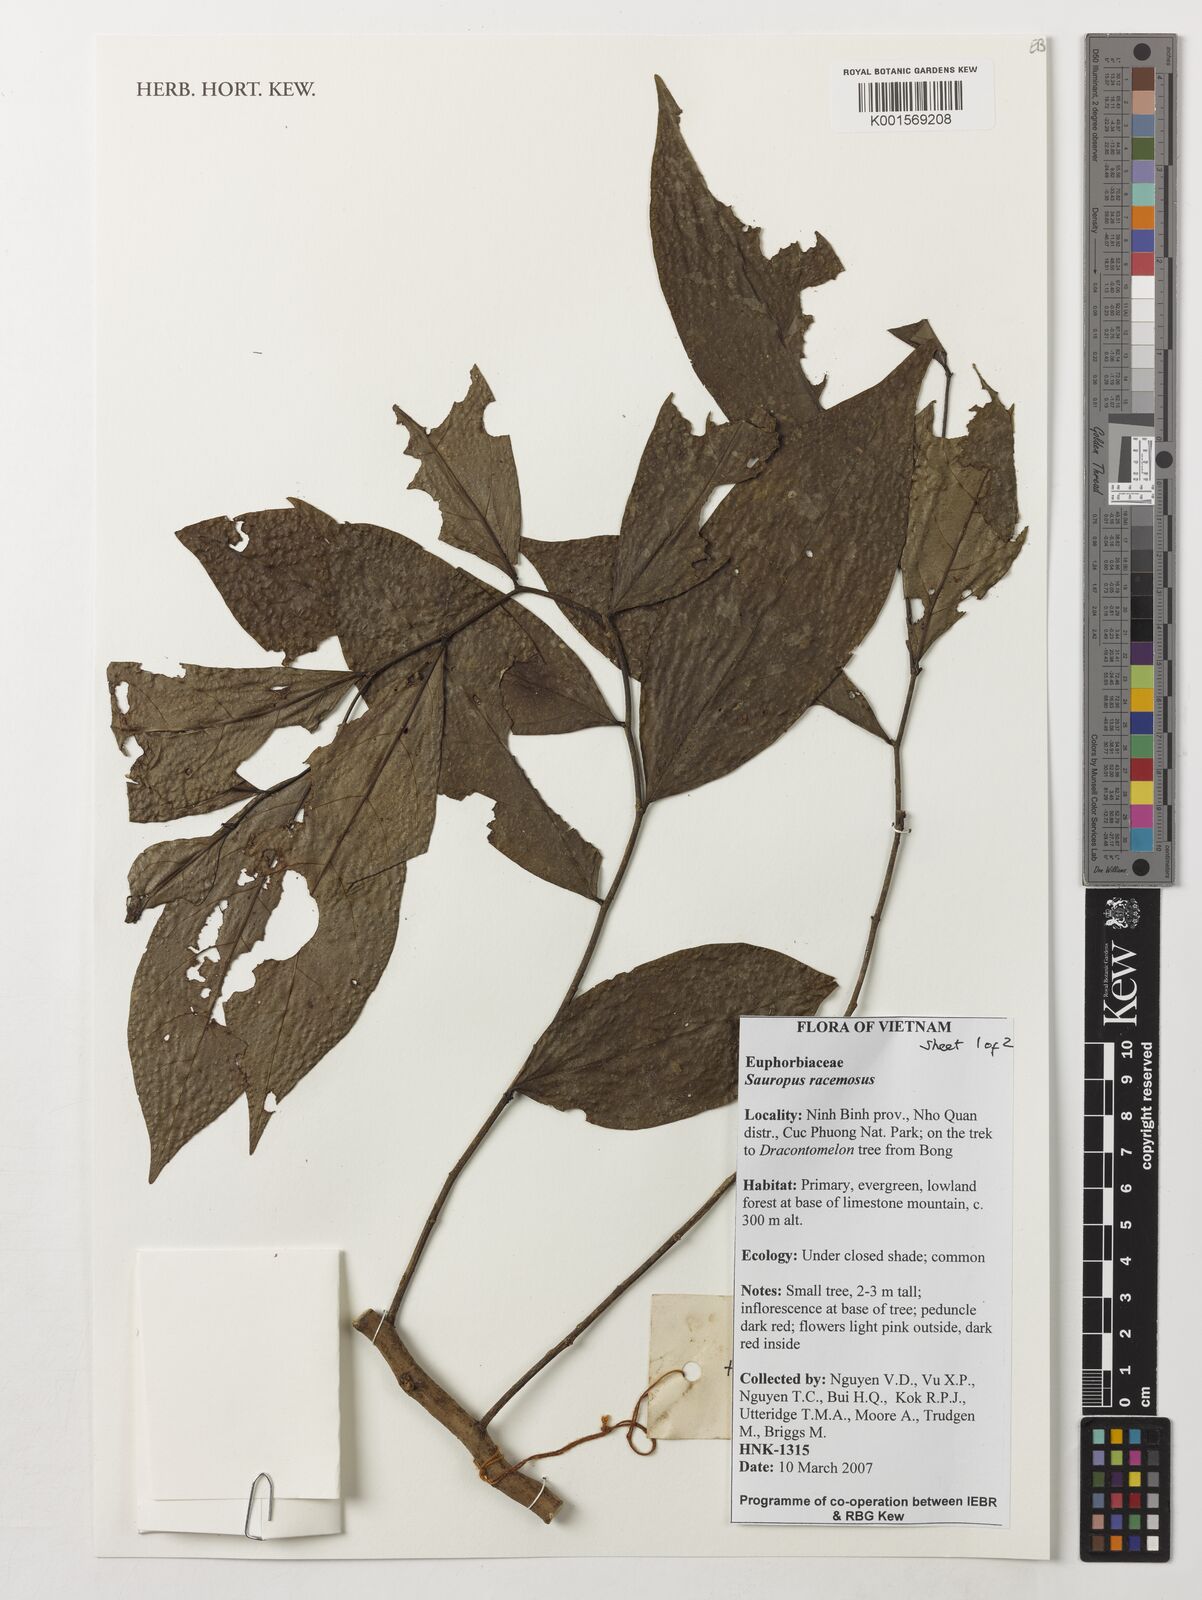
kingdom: Plantae
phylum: Tracheophyta
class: Magnoliopsida
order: Malpighiales
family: Phyllanthaceae
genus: Breynia
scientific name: Breynia beillei
